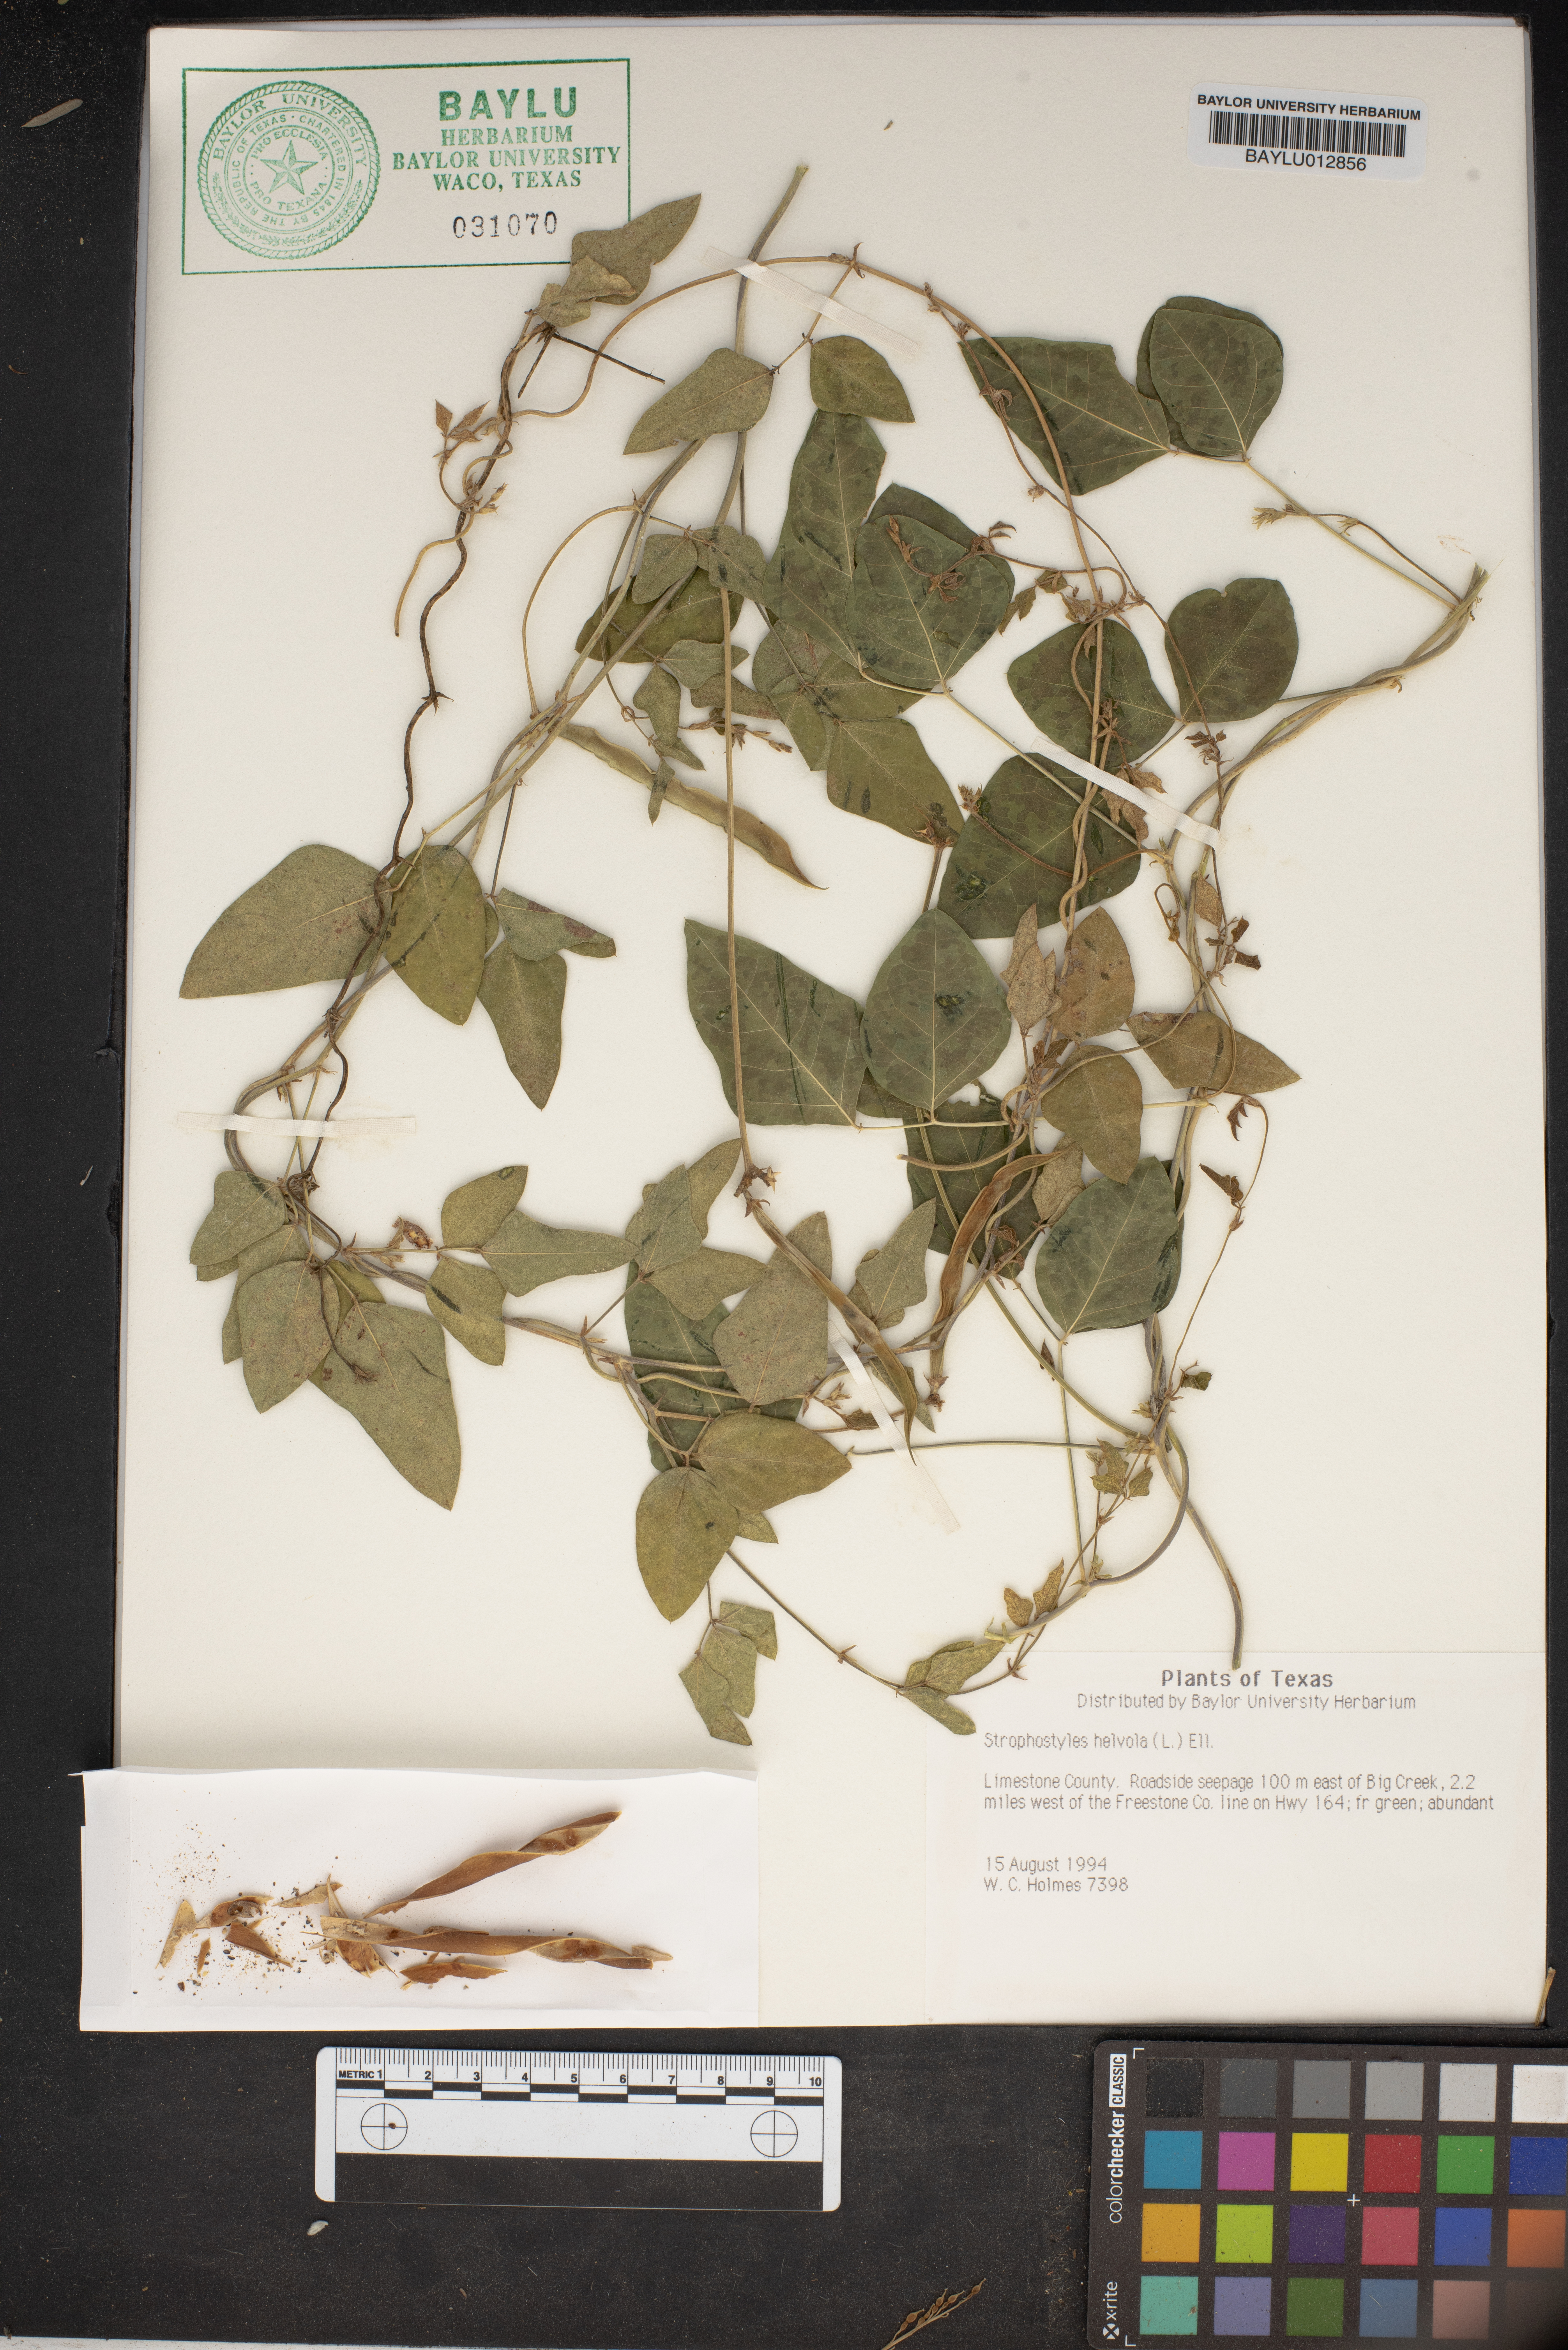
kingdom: Plantae
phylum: Tracheophyta
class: Magnoliopsida
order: Fabales
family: Fabaceae
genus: Strophostyles
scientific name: Strophostyles helvola
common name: Trailing wild bean
